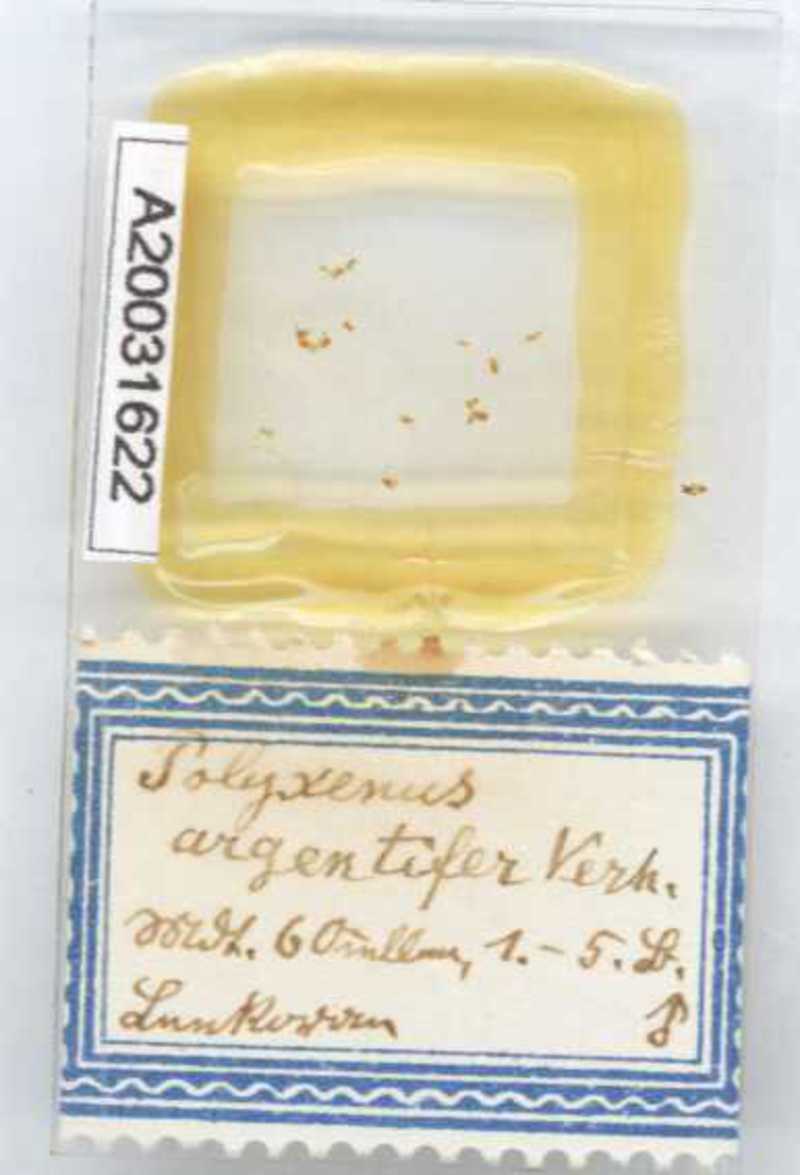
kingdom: Animalia
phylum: Arthropoda
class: Diplopoda
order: Polyxenida
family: Polyxenidae
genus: Propolyxenus
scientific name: Propolyxenus argentifer
